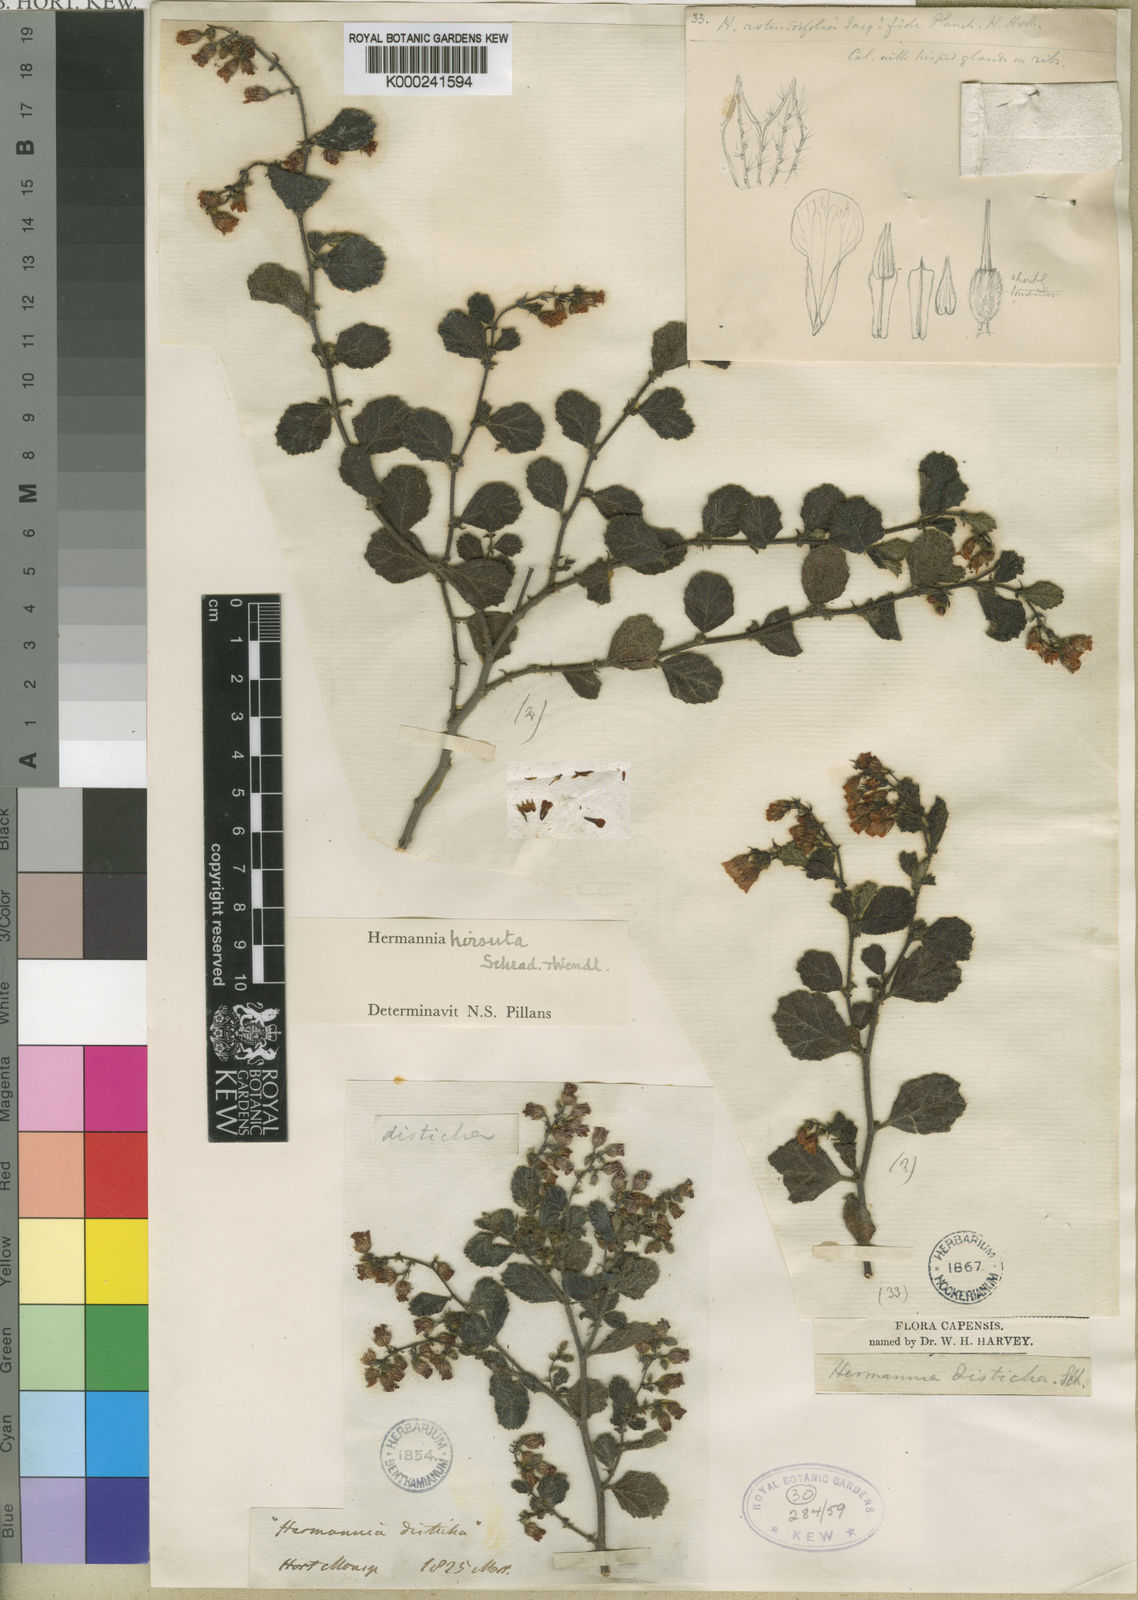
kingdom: Plantae
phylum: Tracheophyta
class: Magnoliopsida
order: Malvales
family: Malvaceae
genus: Hermannia
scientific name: Hermannia repetenda
